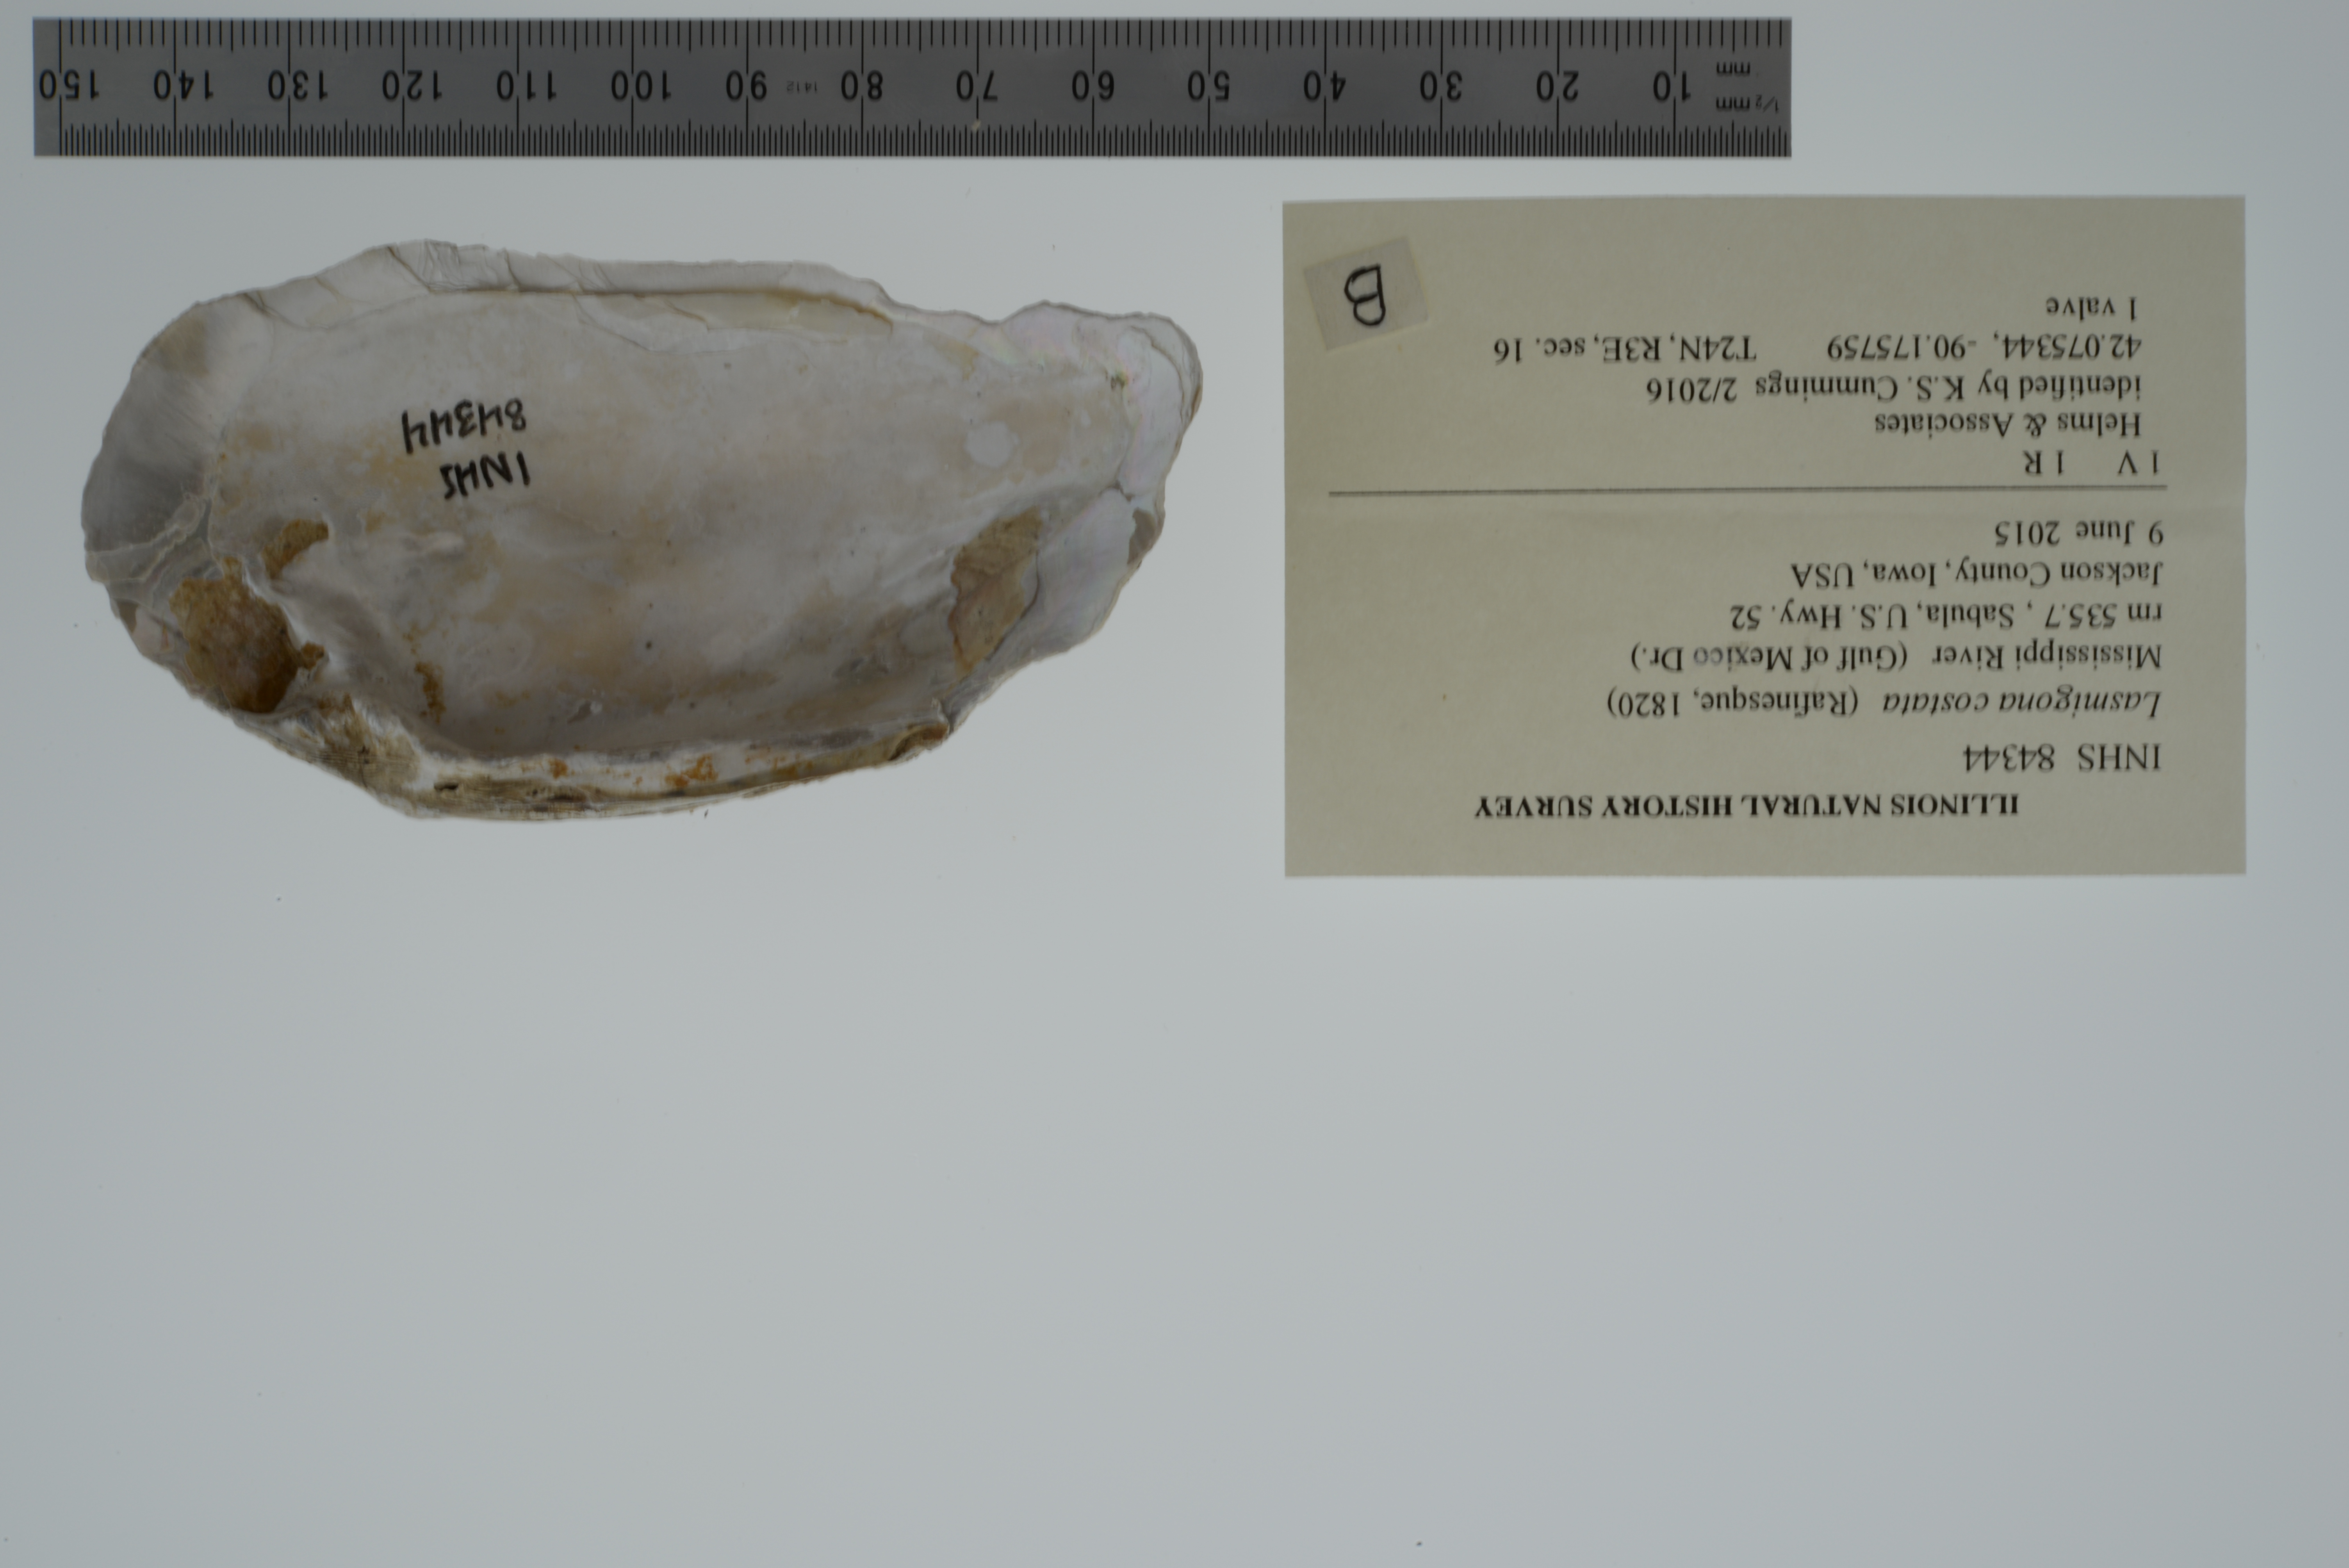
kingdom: Animalia
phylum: Mollusca
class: Bivalvia
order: Unionida
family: Unionidae
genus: Lasmigona
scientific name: Lasmigona costata
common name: Flutedshell
